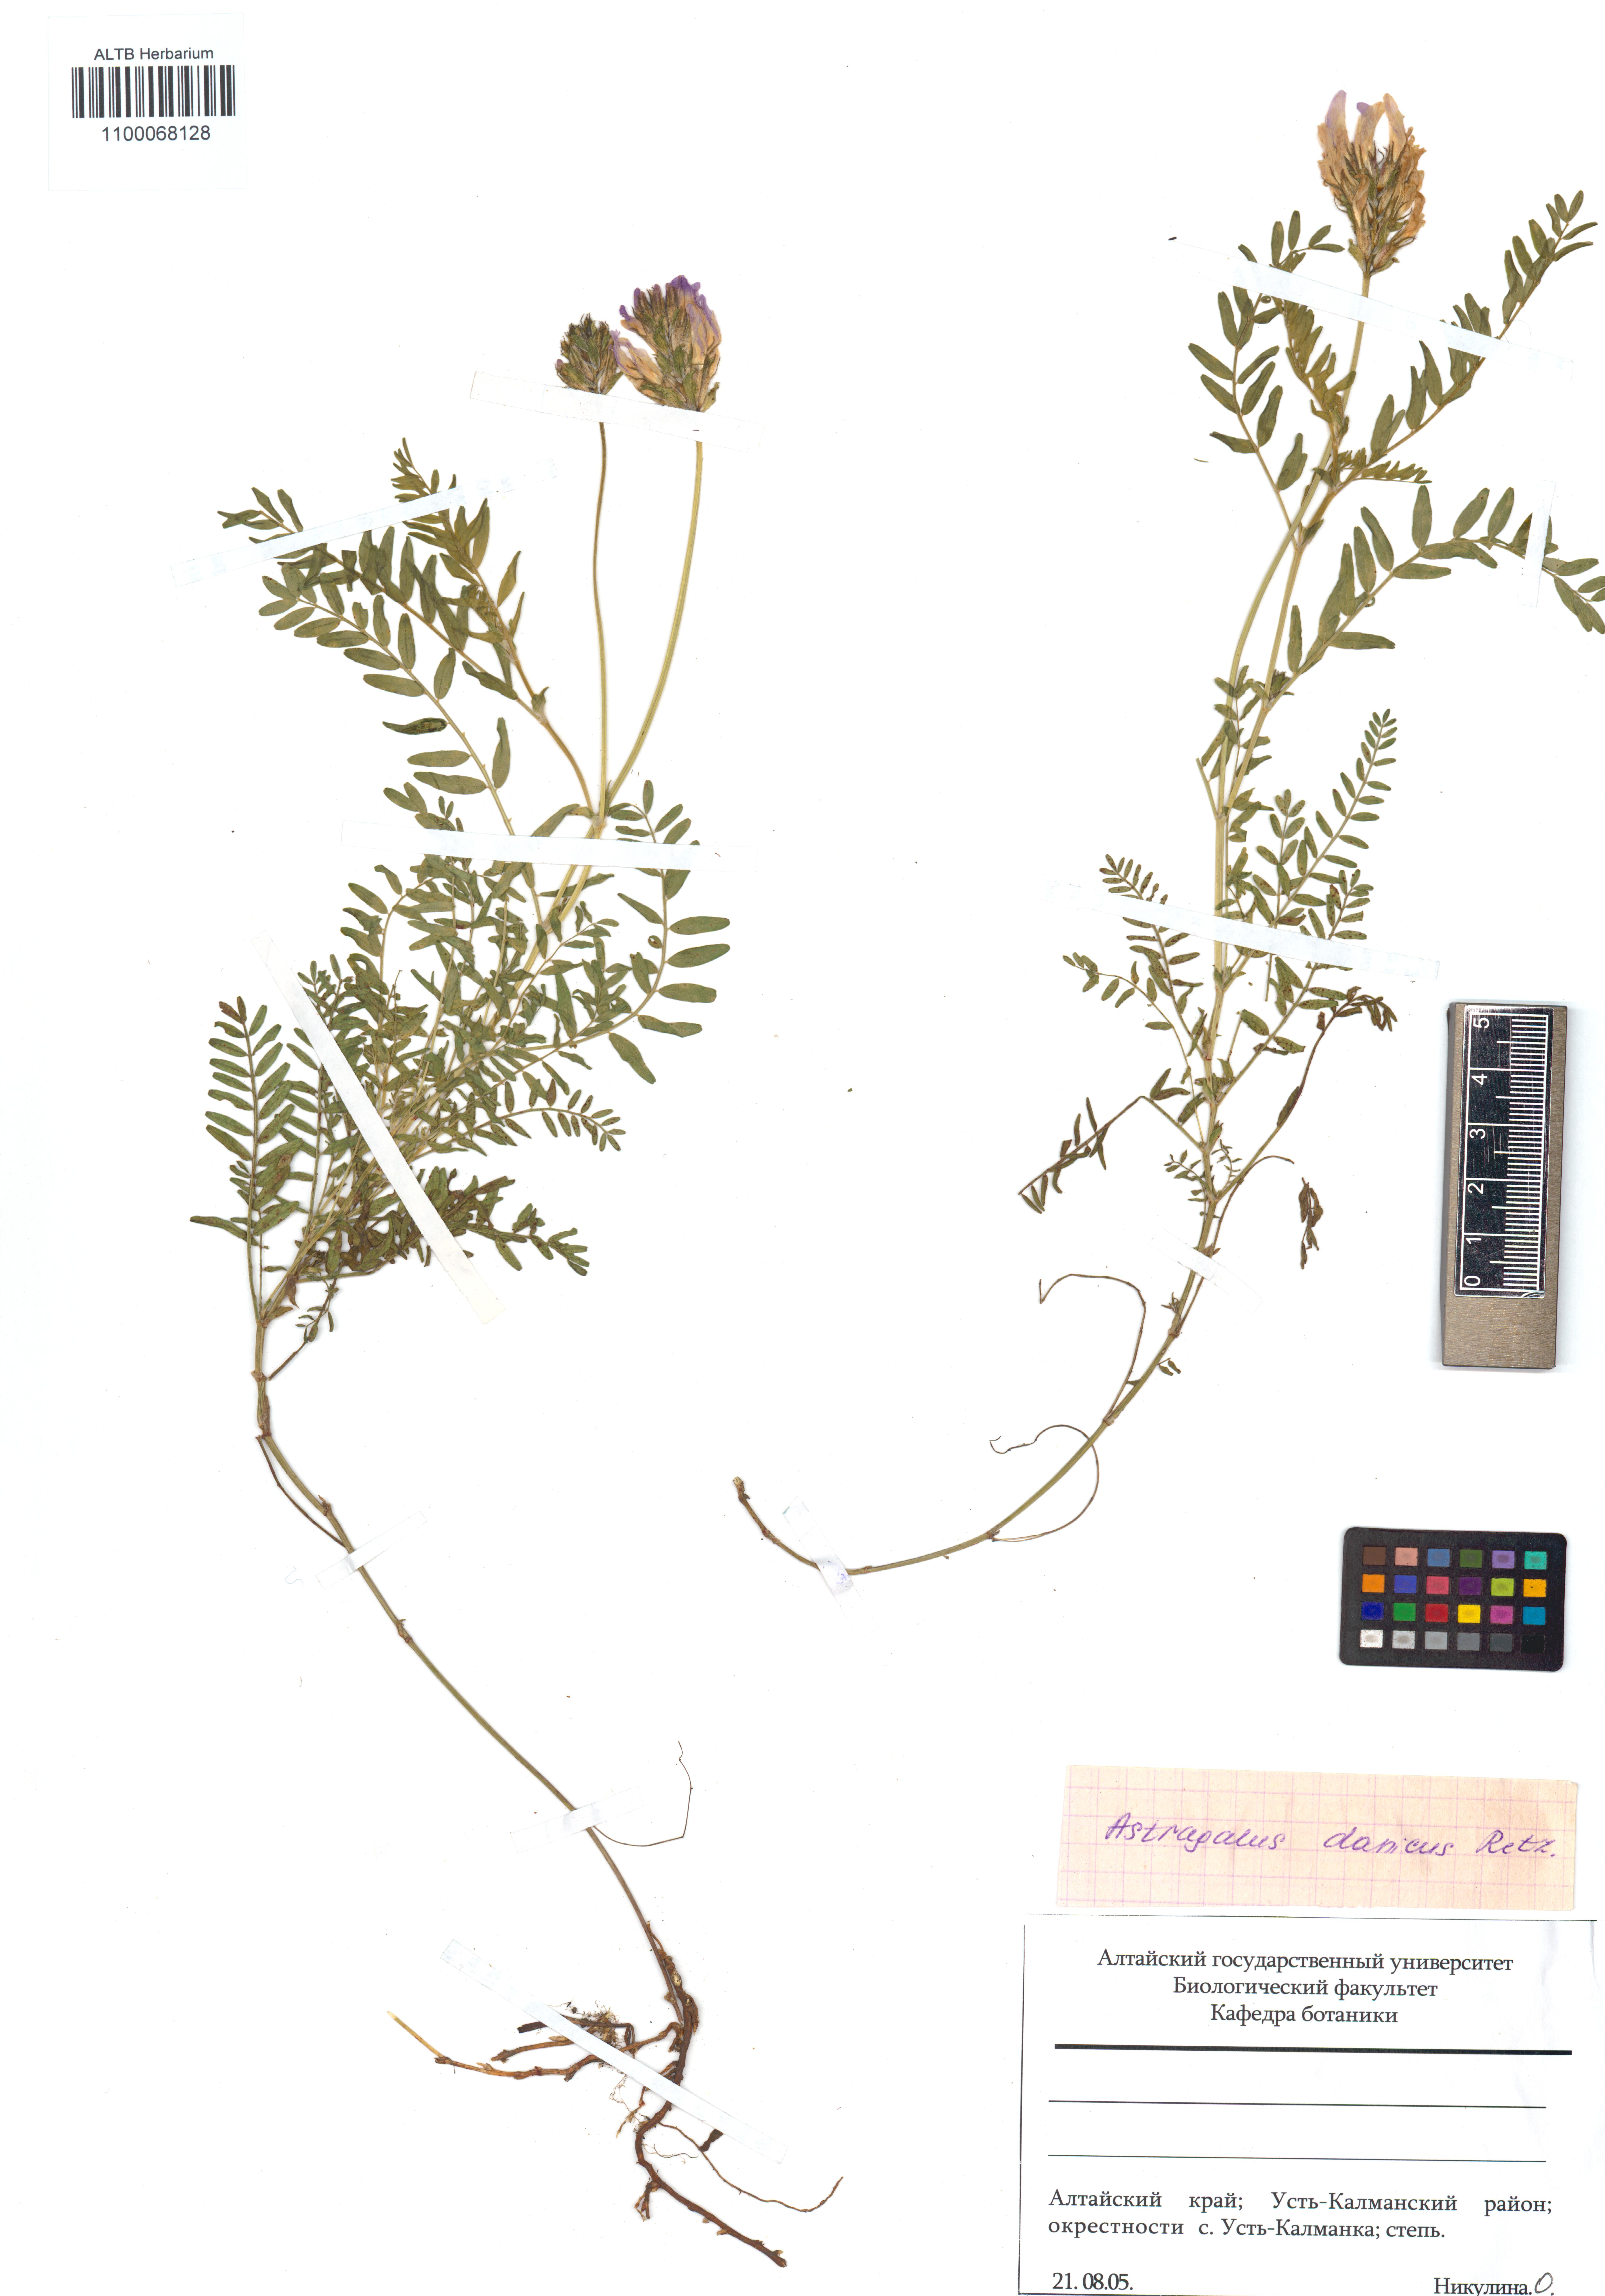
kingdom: Plantae
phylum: Tracheophyta
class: Magnoliopsida
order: Fabales
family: Fabaceae
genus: Astragalus
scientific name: Astragalus danicus
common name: Purple milk-vetch
